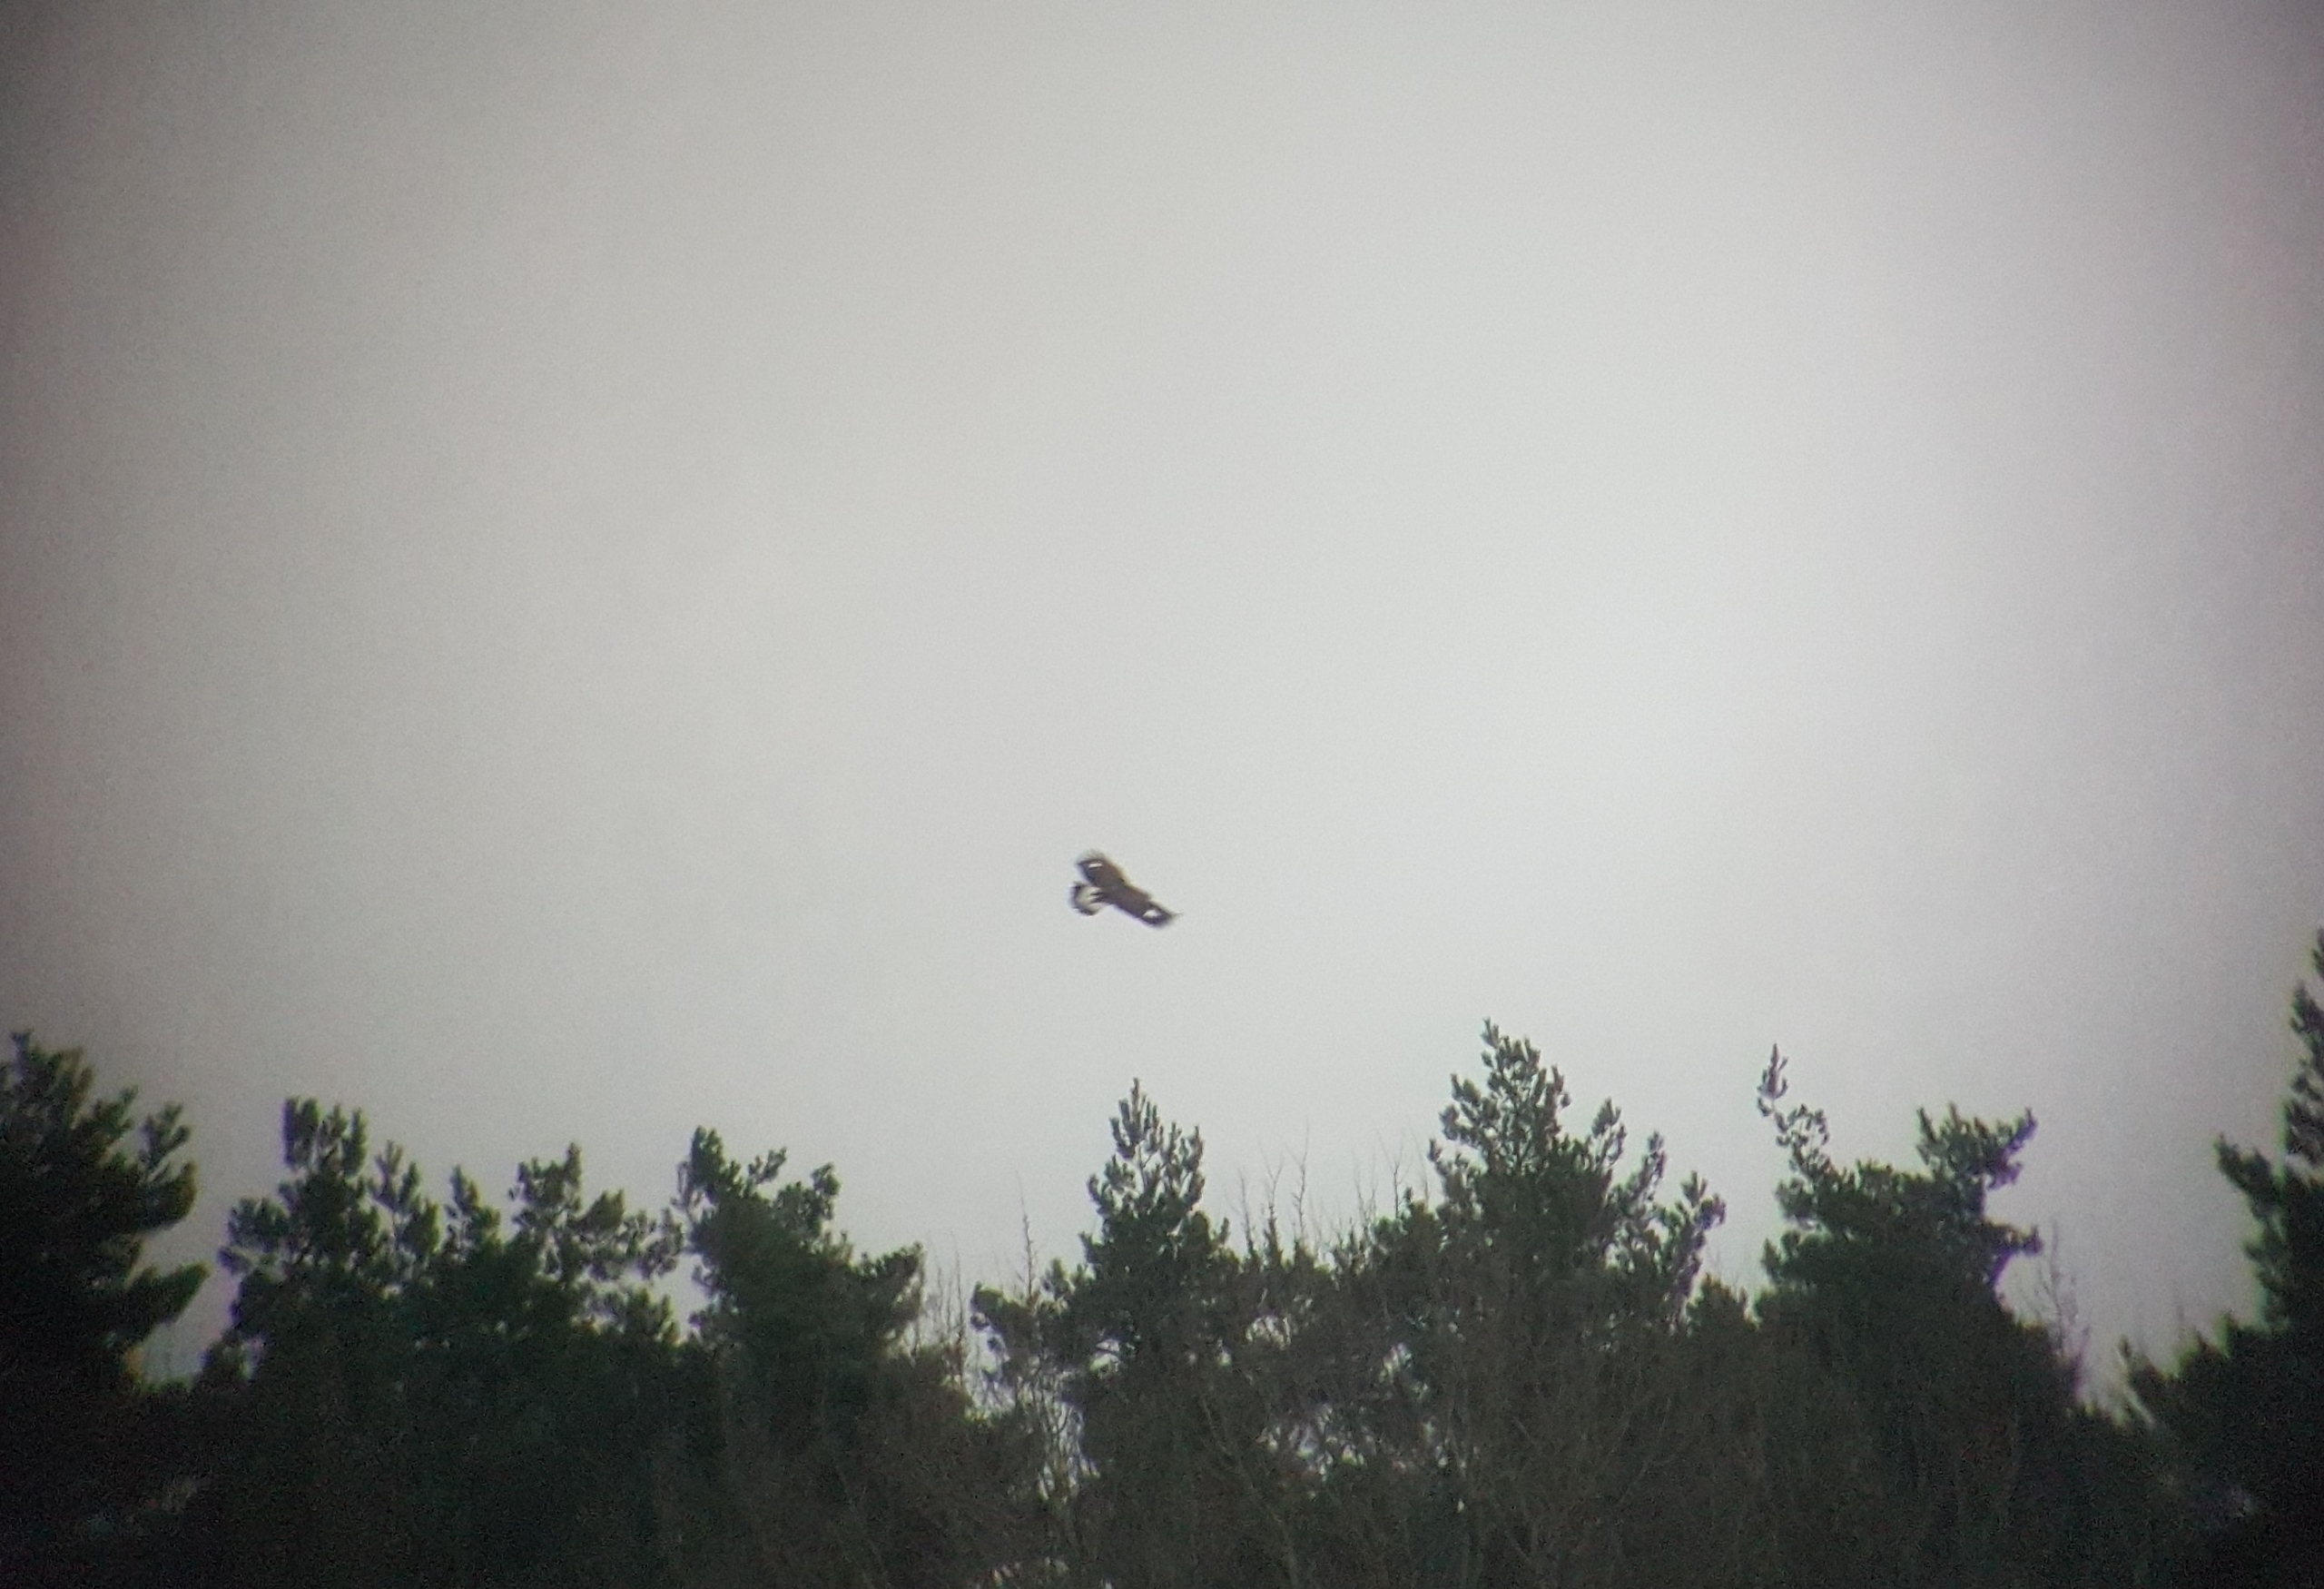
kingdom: Animalia
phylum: Chordata
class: Aves
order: Accipitriformes
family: Accipitridae
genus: Aquila
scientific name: Aquila chrysaetos
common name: Kongeørn
